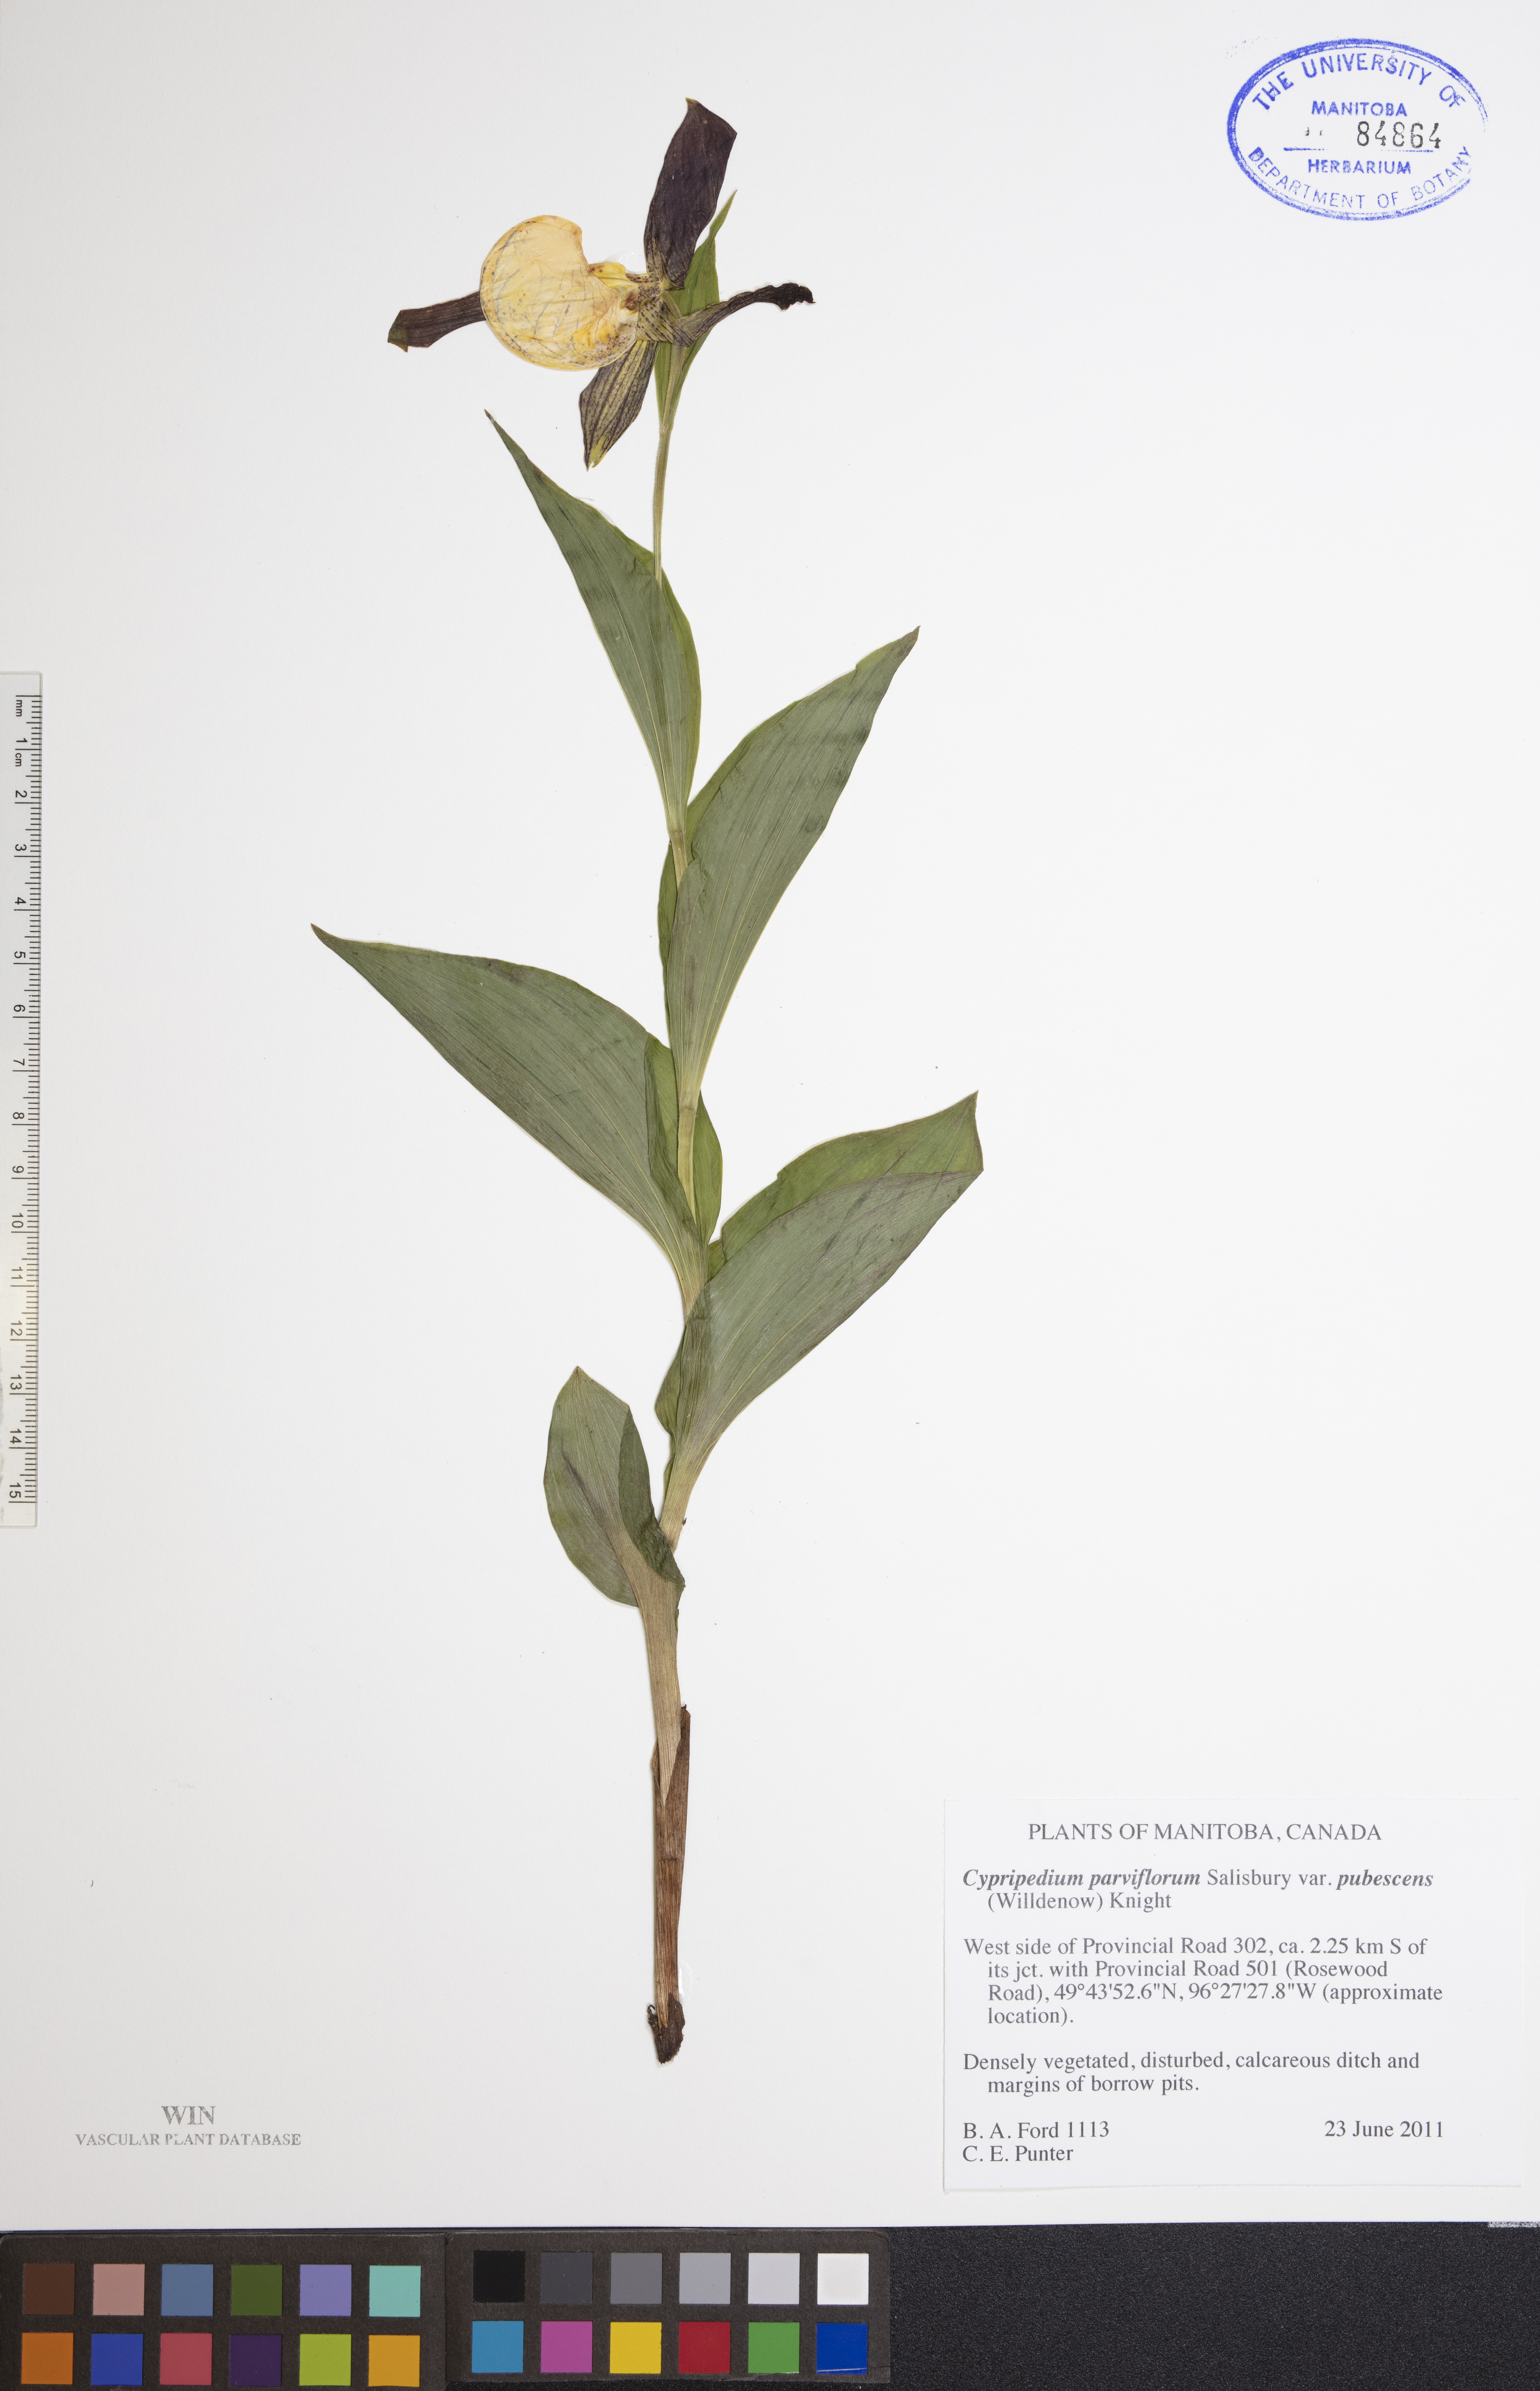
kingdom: Plantae
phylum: Tracheophyta
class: Liliopsida
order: Asparagales
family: Orchidaceae
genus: Cypripedium
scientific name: Cypripedium parviflorum
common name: American yellow lady's-slipper
